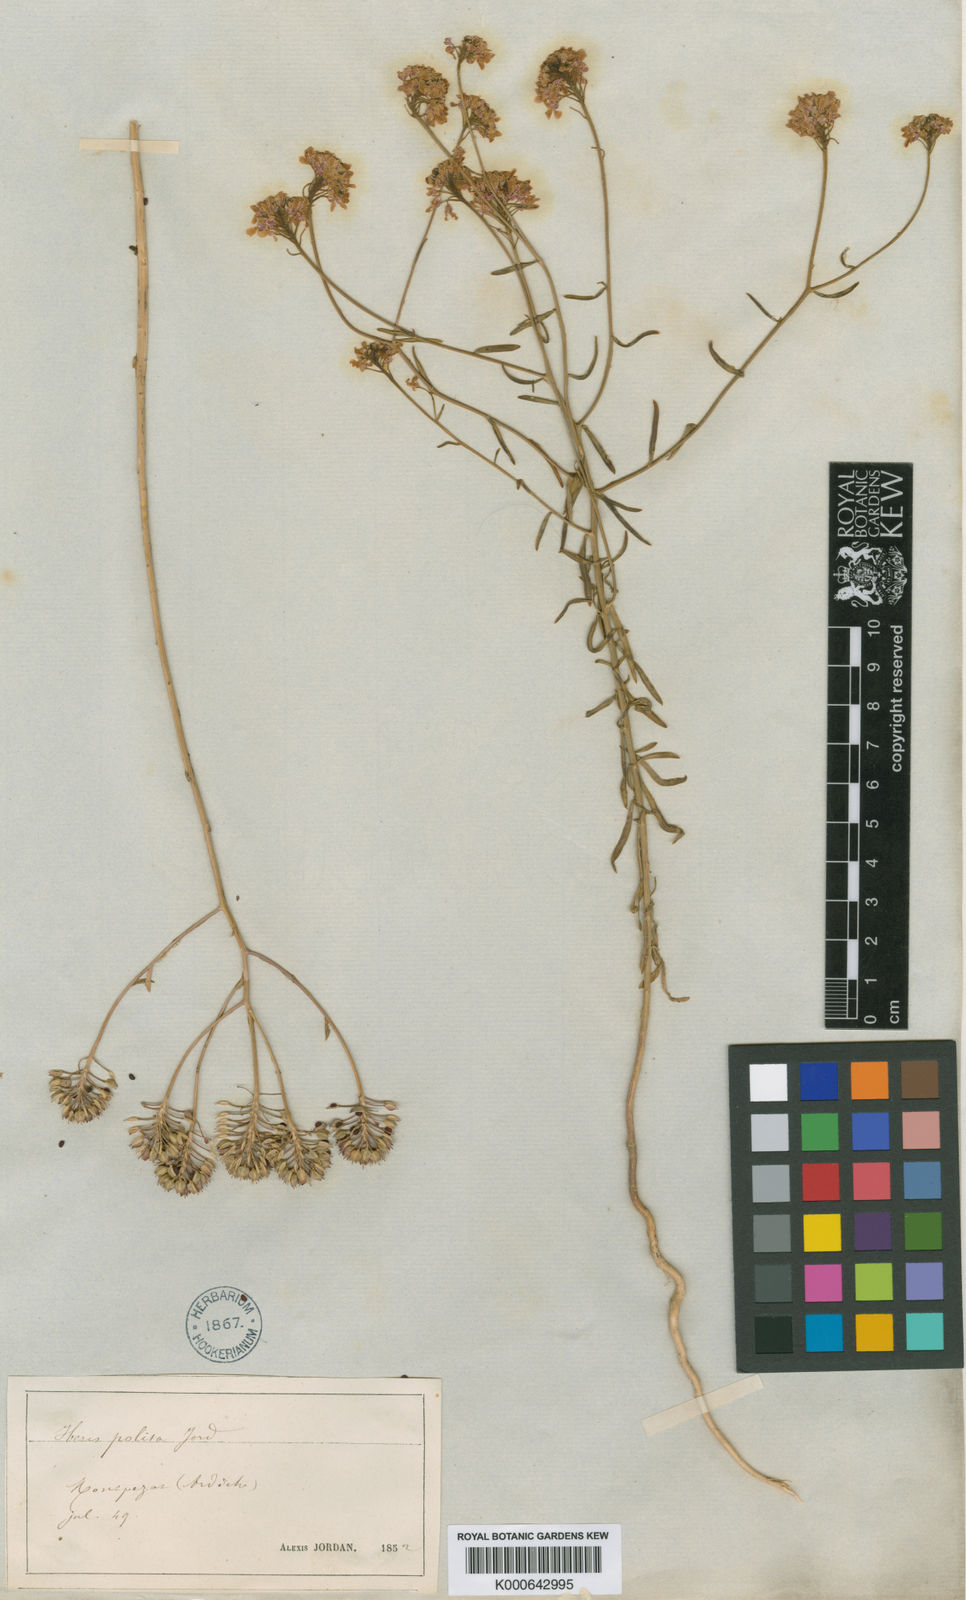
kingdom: Plantae
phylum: Tracheophyta
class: Magnoliopsida
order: Brassicales
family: Brassicaceae
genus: Iberis
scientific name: Iberis linifolia
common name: Candytuft
